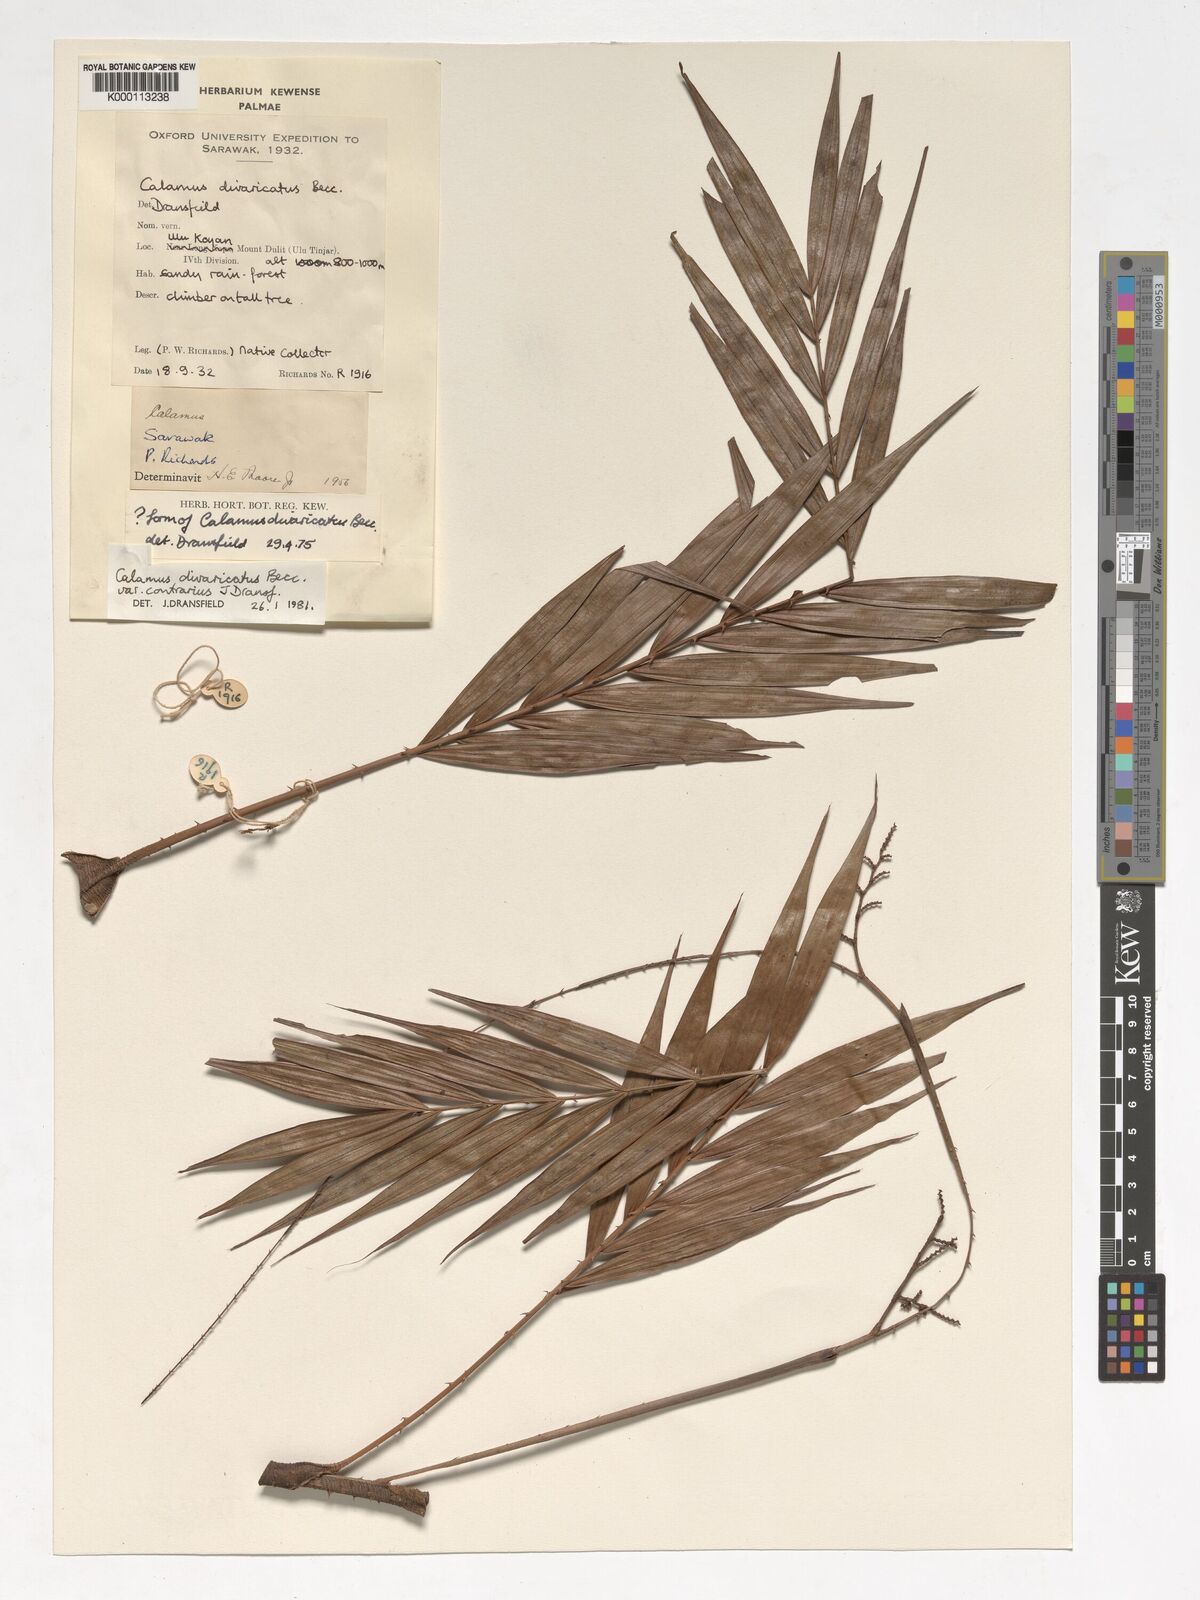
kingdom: Plantae
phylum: Tracheophyta
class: Liliopsida
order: Arecales
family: Arecaceae
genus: Calamus
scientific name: Calamus divaricatus
